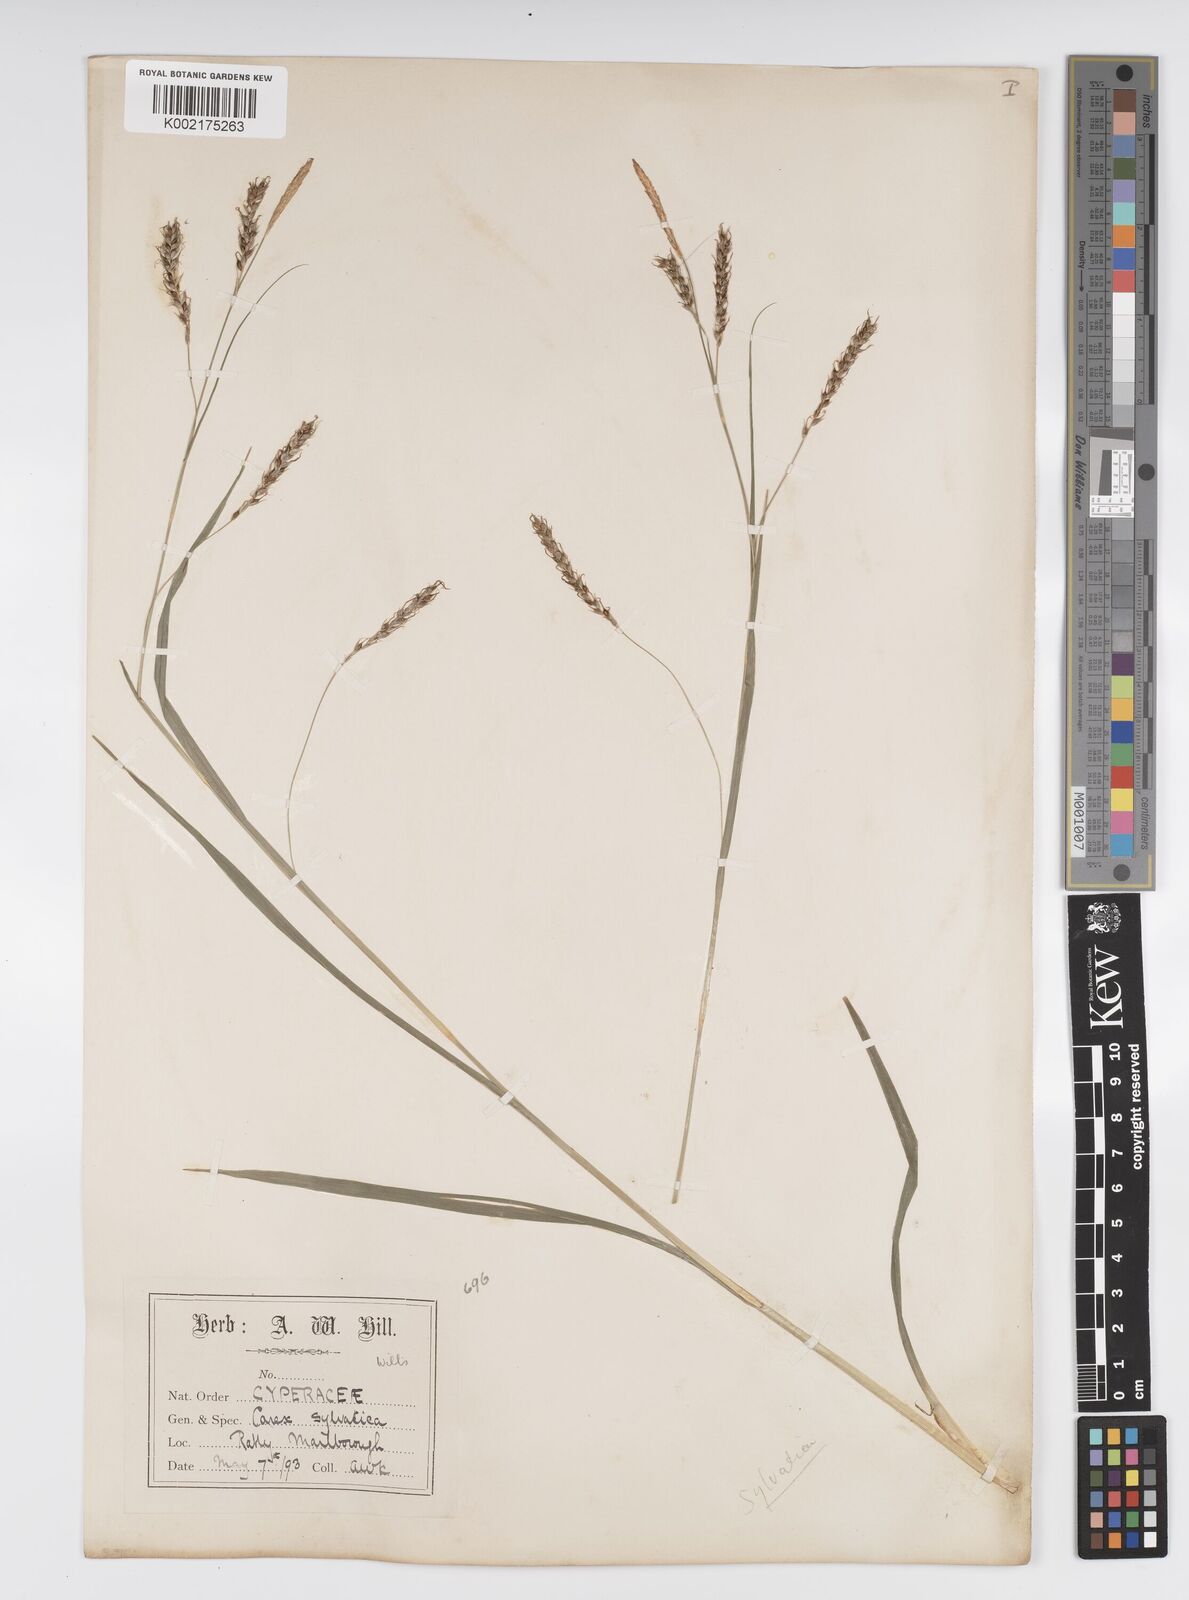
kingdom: Plantae
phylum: Tracheophyta
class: Liliopsida
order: Poales
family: Cyperaceae
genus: Carex
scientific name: Carex sylvatica
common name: Wood-sedge
